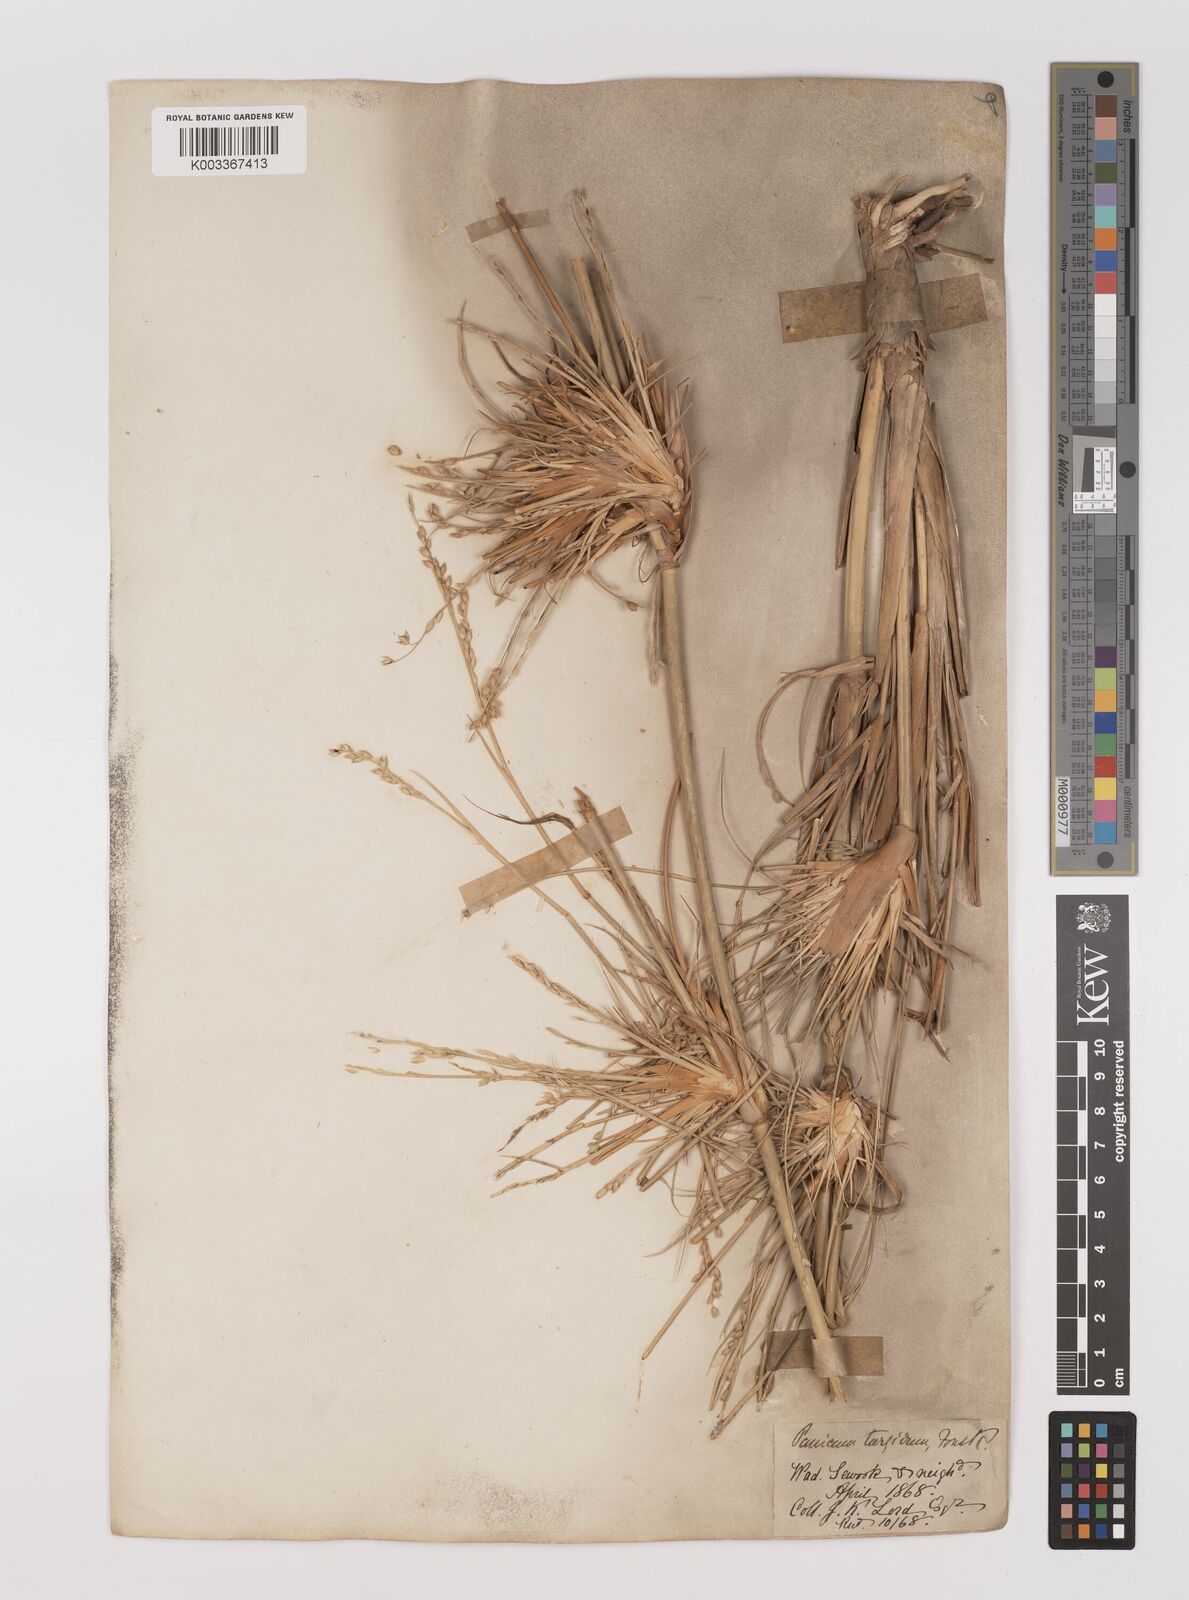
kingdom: Plantae
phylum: Tracheophyta
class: Liliopsida
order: Poales
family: Poaceae
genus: Panicum
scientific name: Panicum turgidum
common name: Desert grass
